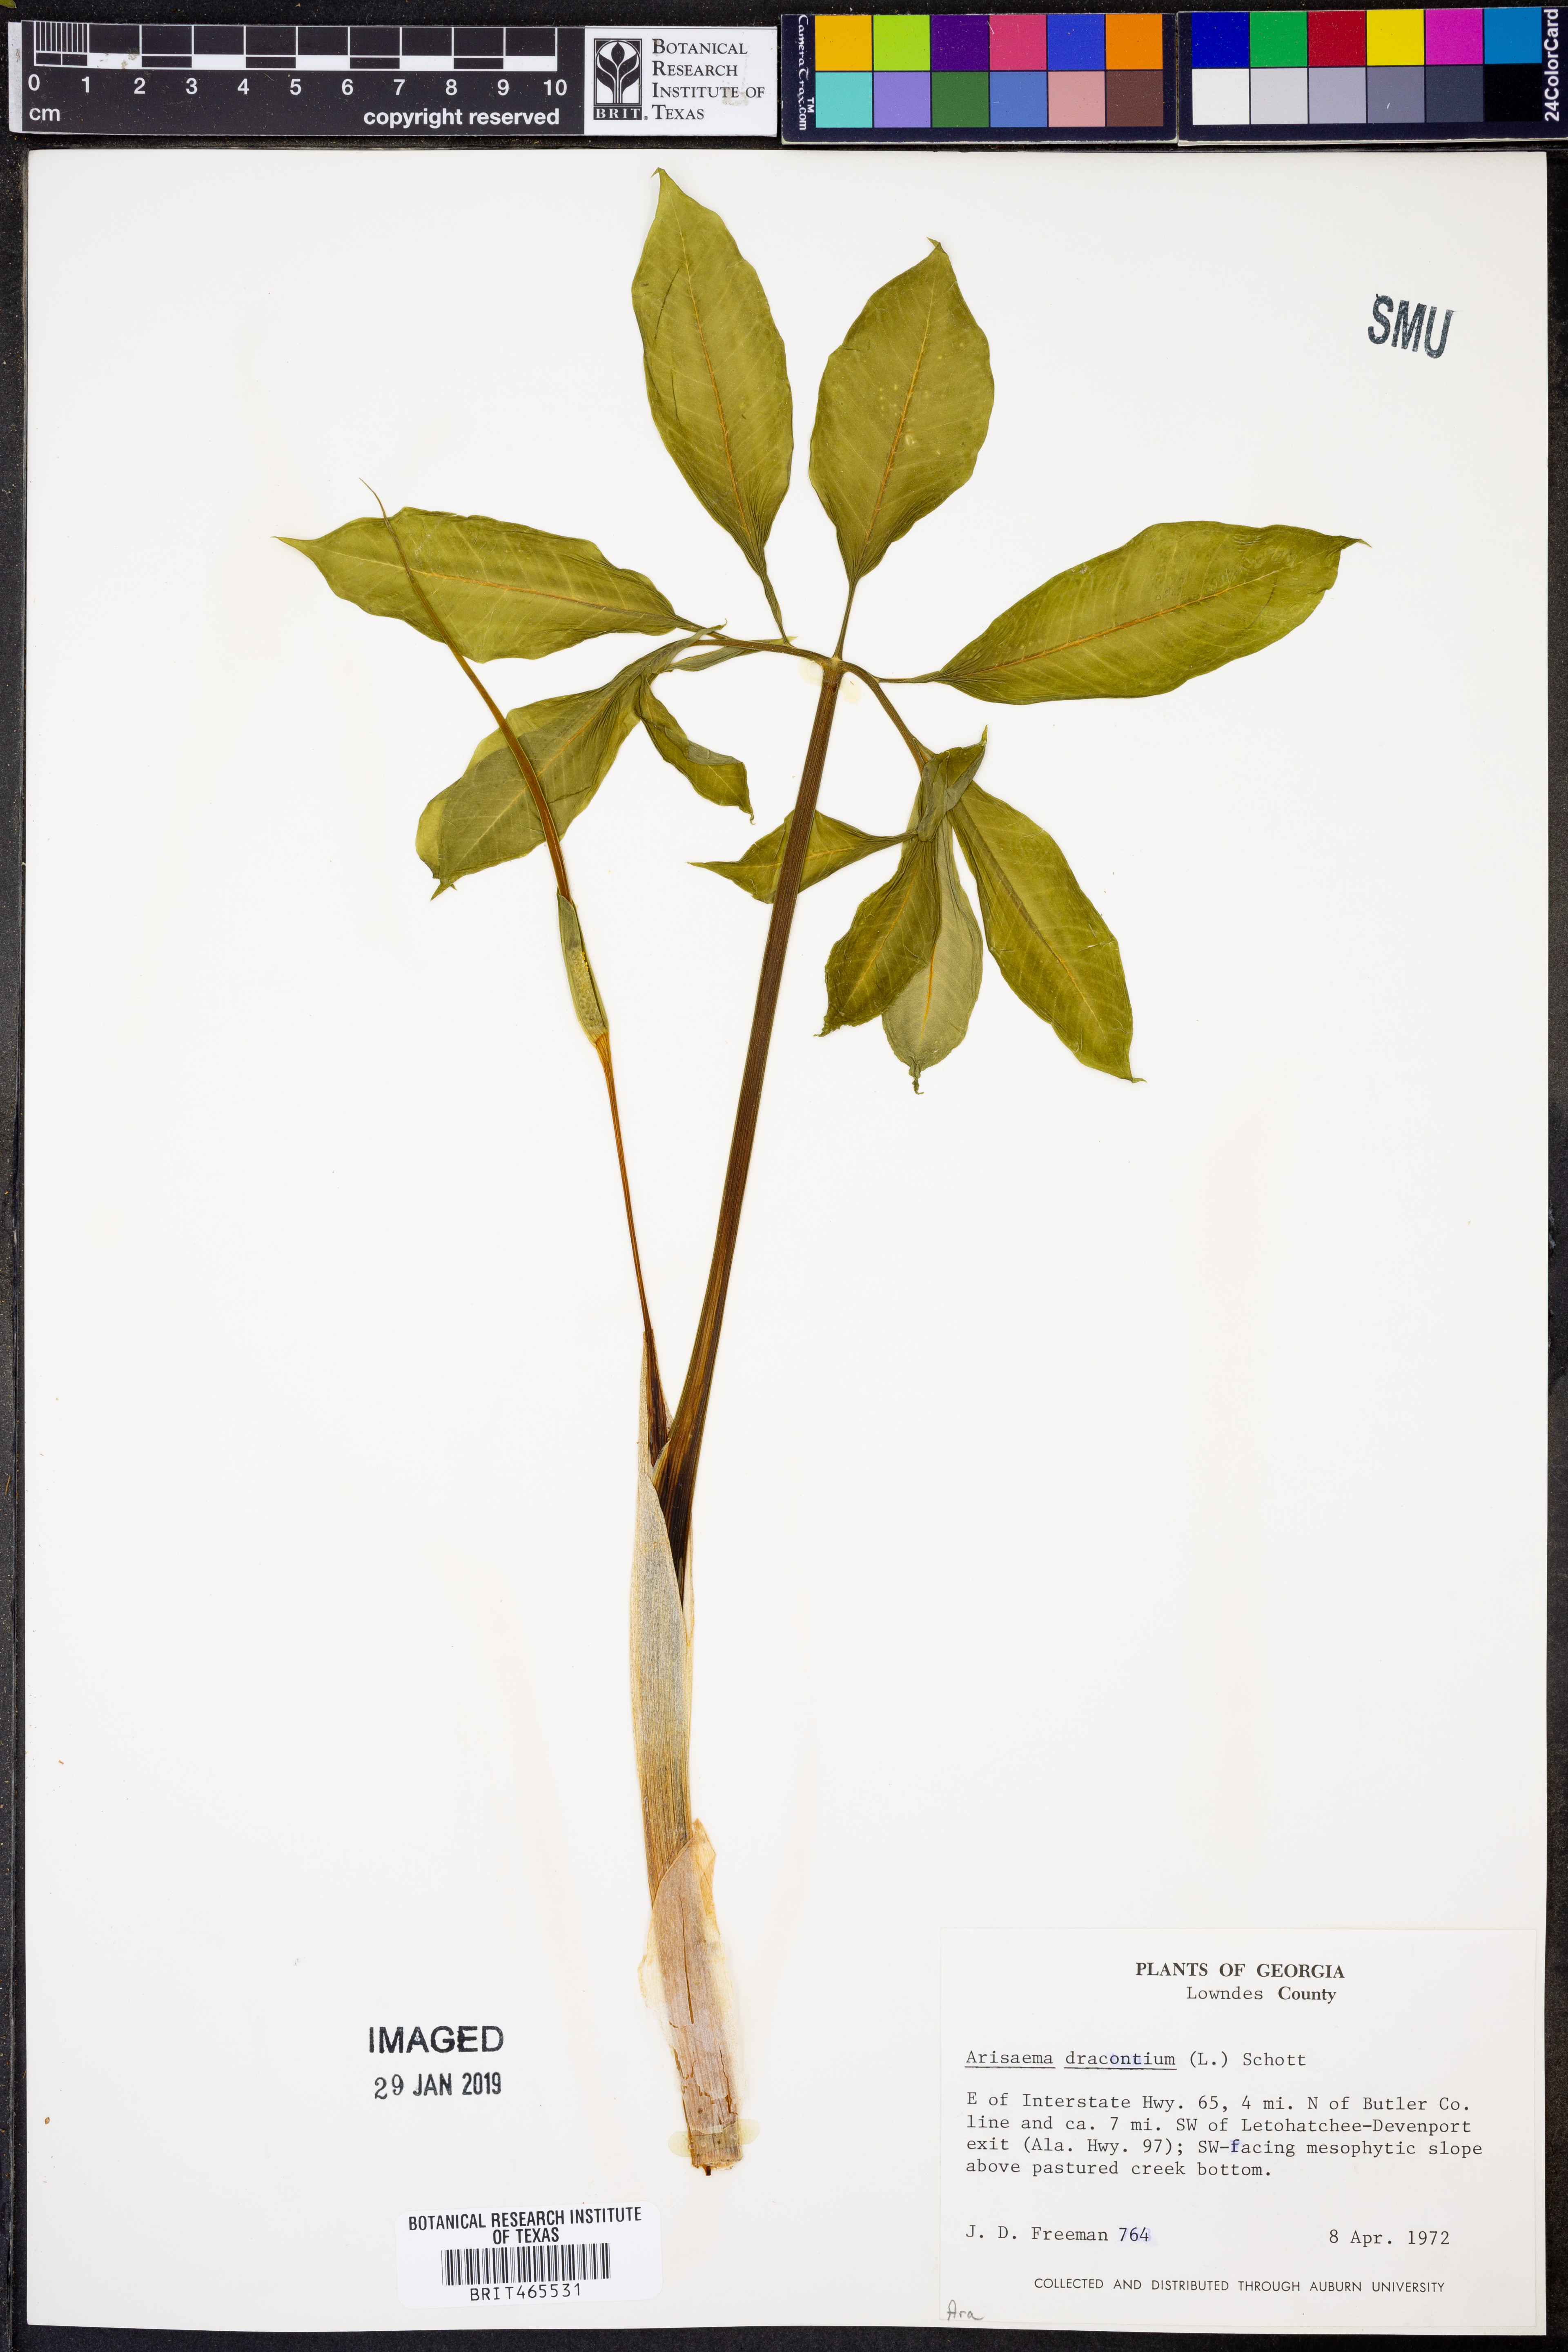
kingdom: Plantae
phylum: Tracheophyta
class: Liliopsida
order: Alismatales
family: Araceae
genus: Arisaema
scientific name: Arisaema dracontium
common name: Dragon-arum
